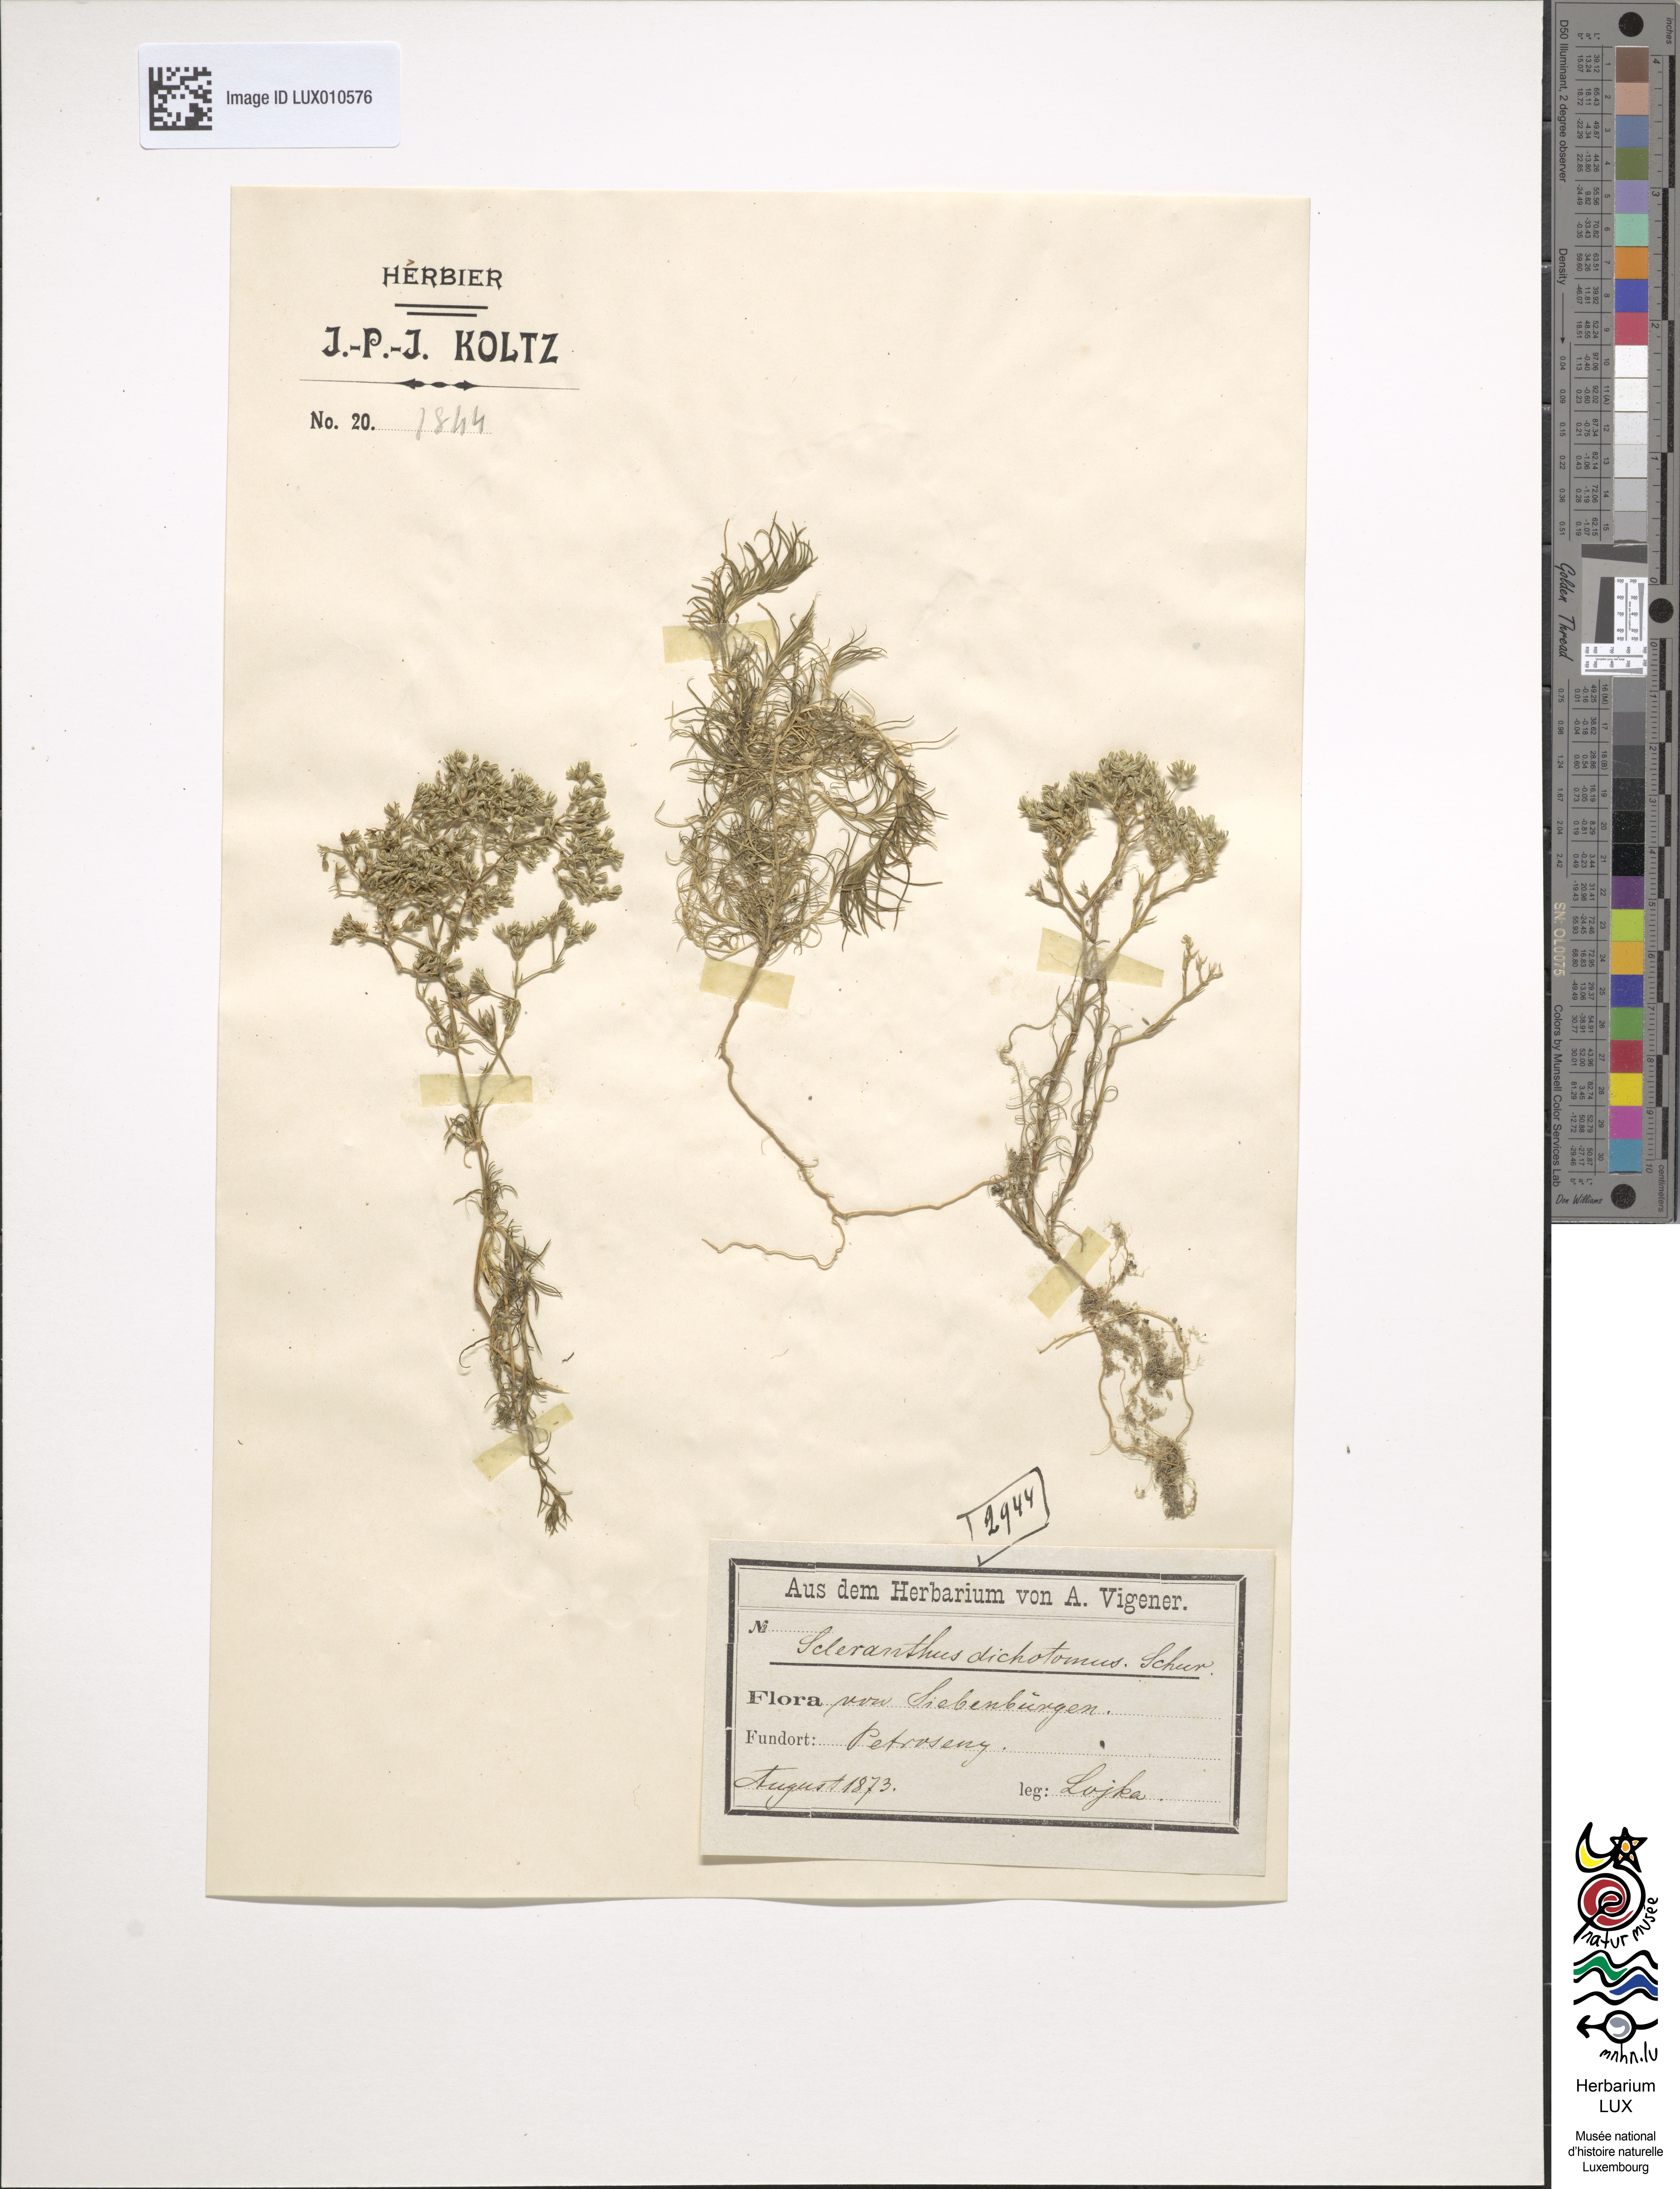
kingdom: Plantae
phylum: Tracheophyta
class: Magnoliopsida
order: Caryophyllales
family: Caryophyllaceae
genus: Scleranthus
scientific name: Scleranthus perennis
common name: Perennial knawel
